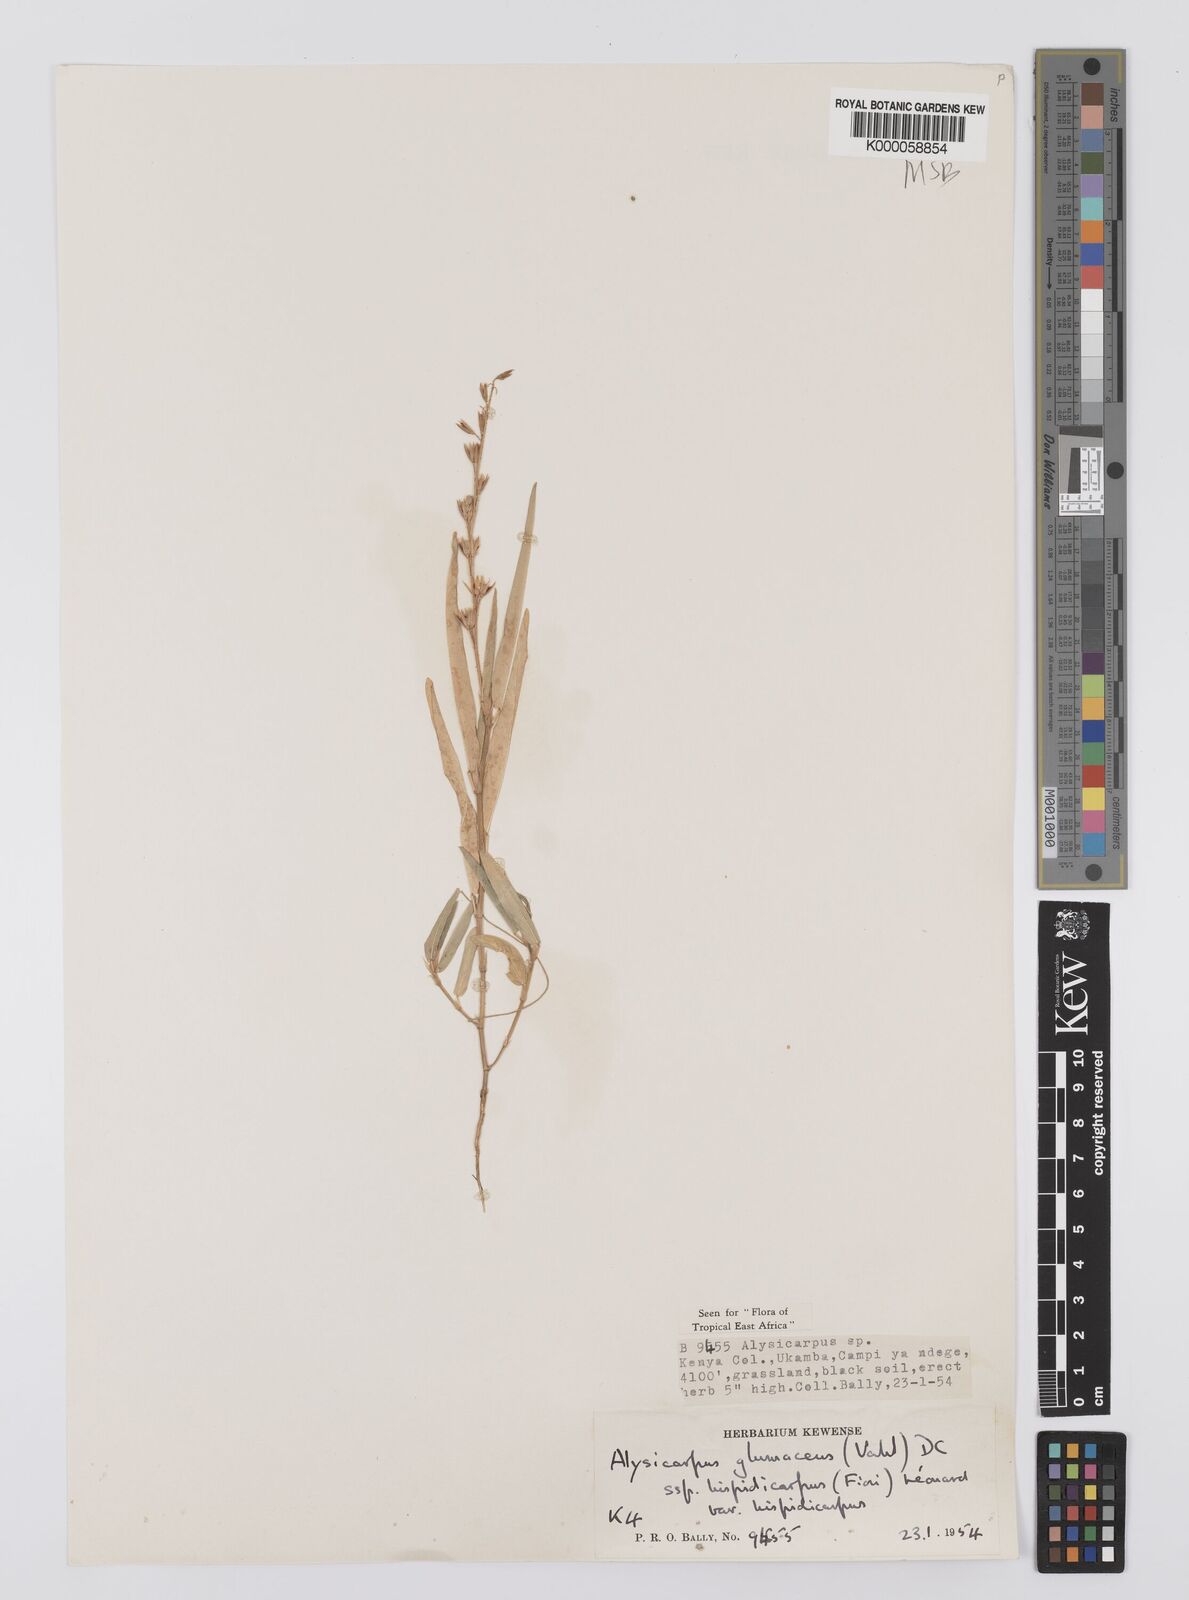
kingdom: Plantae
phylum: Tracheophyta
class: Magnoliopsida
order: Fabales
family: Fabaceae
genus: Alysicarpus
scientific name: Alysicarpus glumaceus
